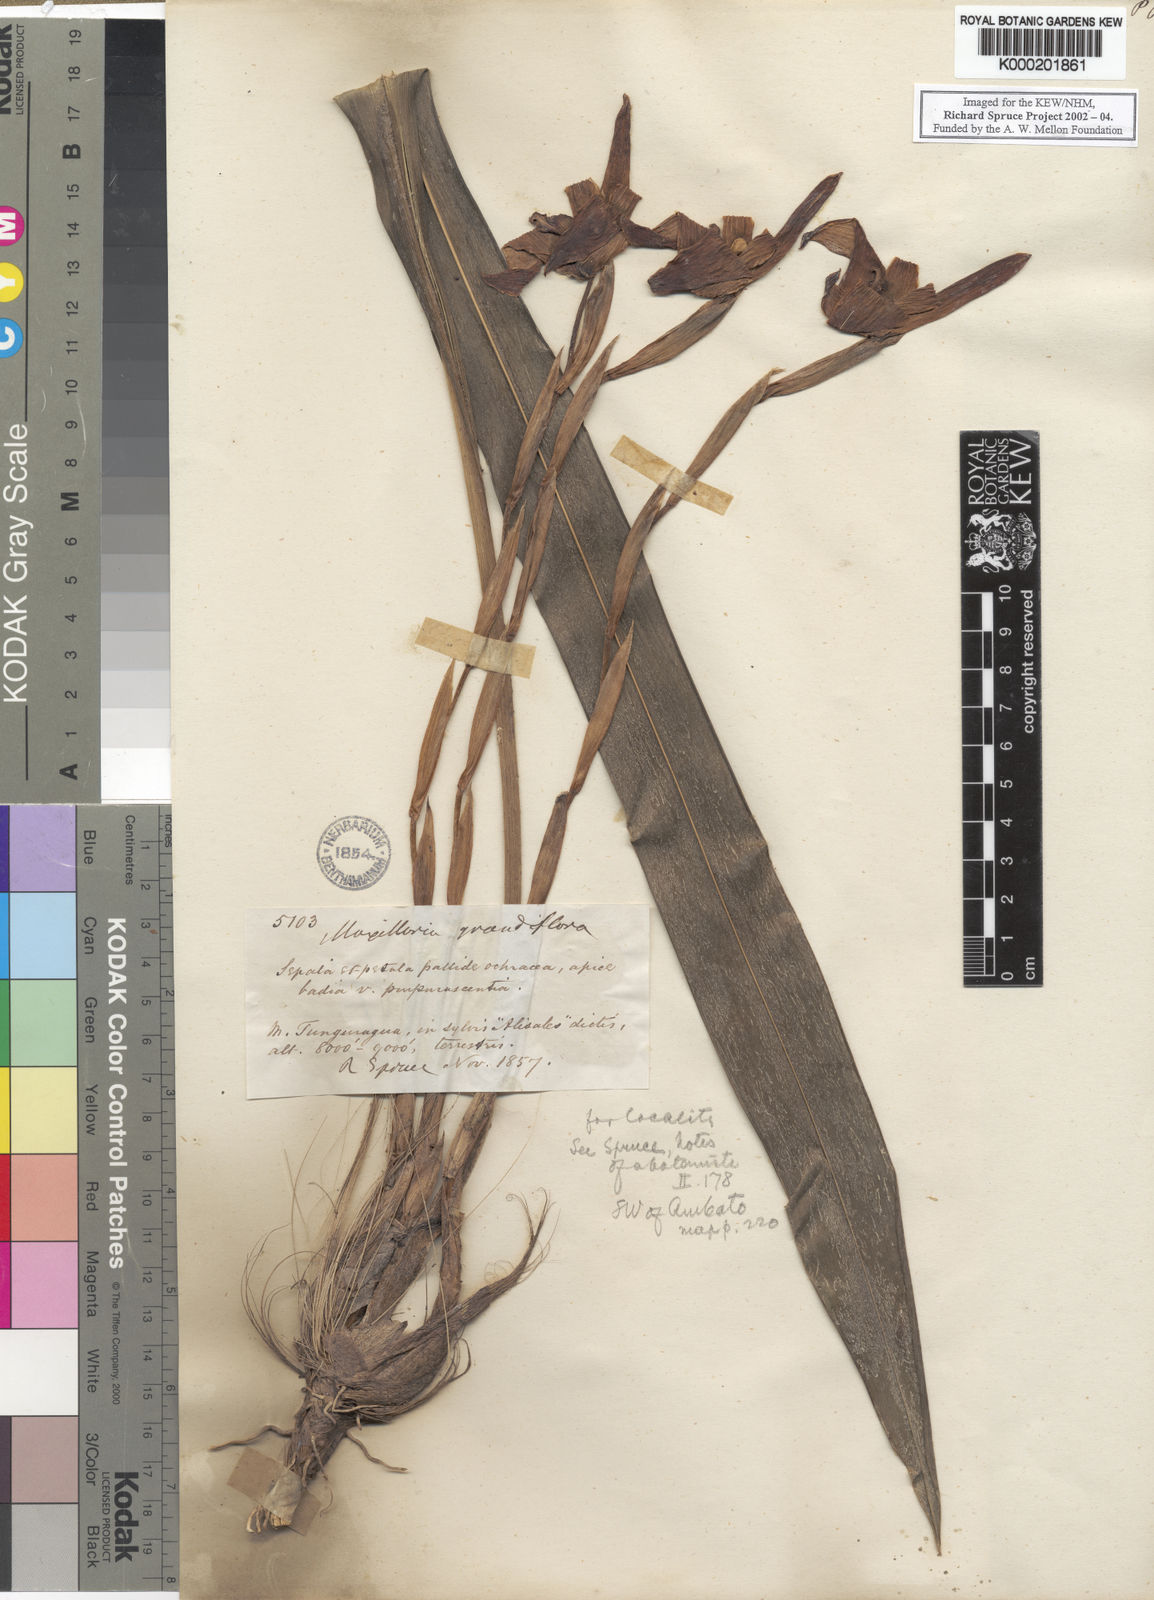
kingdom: Plantae
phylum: Tracheophyta
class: Liliopsida
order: Asparagales
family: Orchidaceae
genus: Maxillaria
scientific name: Maxillaria grandiflora
